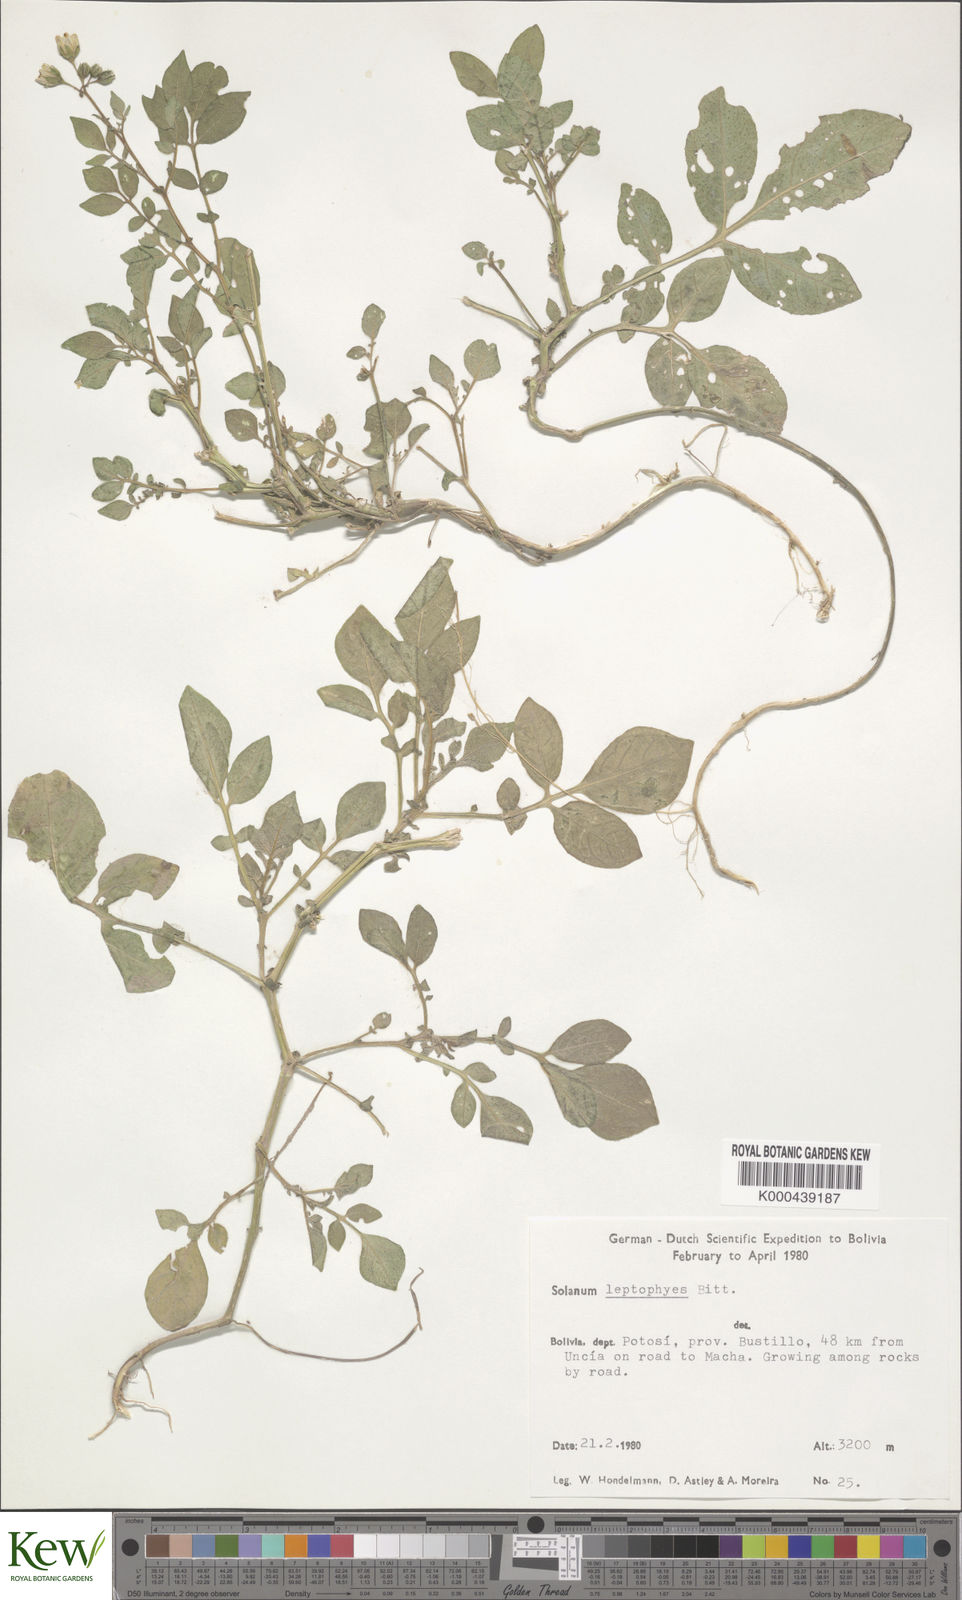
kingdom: Plantae
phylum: Tracheophyta
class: Magnoliopsida
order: Solanales
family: Solanaceae
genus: Solanum
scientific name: Solanum brevicaule
